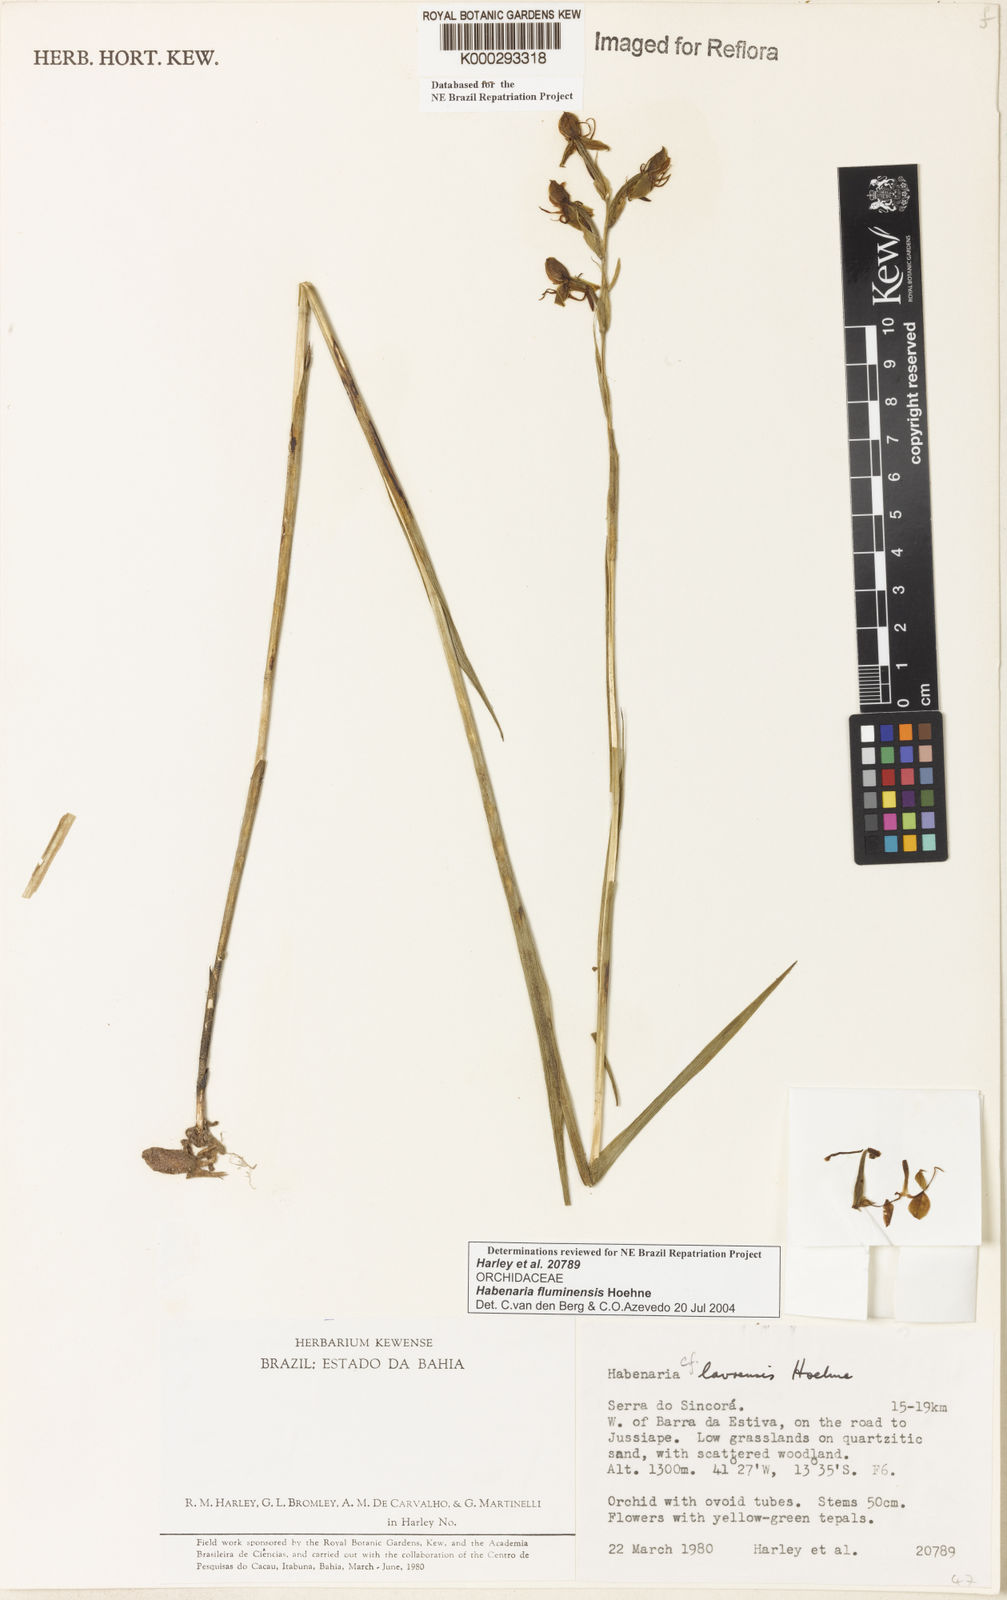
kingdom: Plantae
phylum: Tracheophyta
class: Liliopsida
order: Asparagales
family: Orchidaceae
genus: Habenaria
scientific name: Habenaria fluminensis
